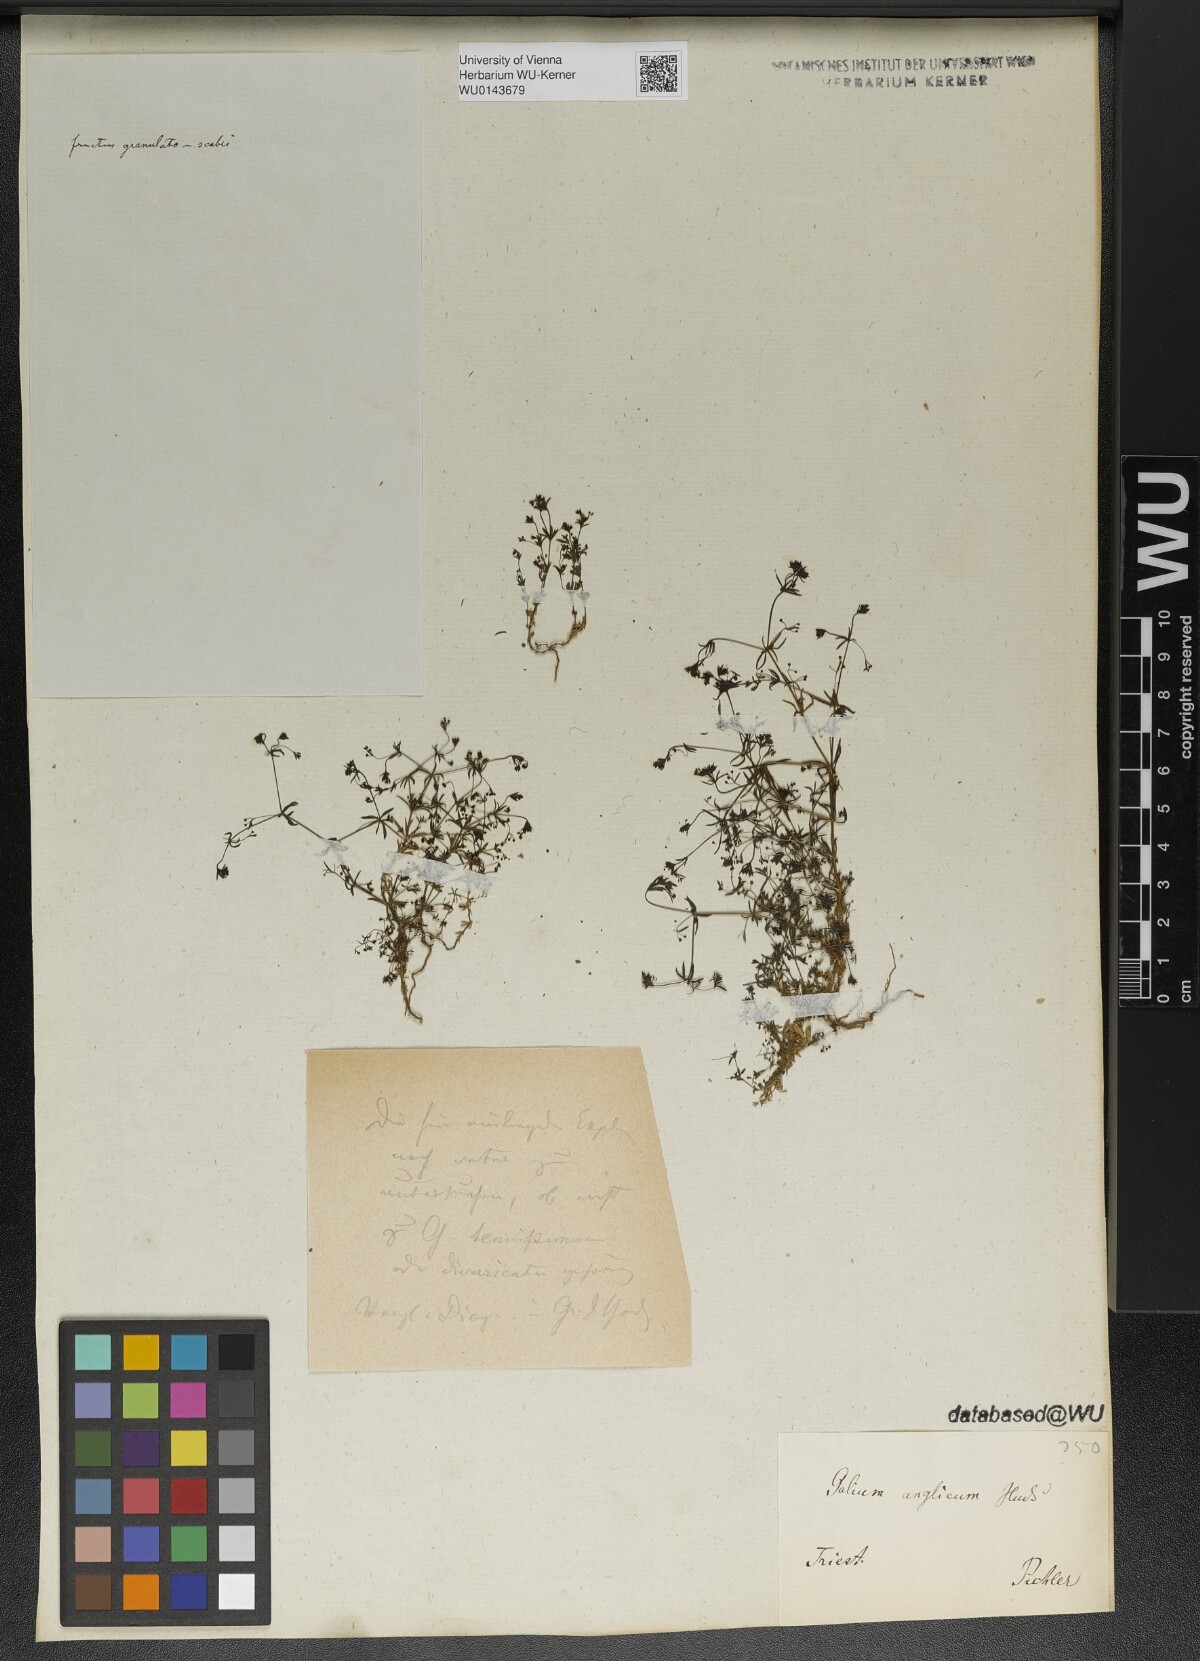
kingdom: Plantae
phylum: Tracheophyta
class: Magnoliopsida
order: Gentianales
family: Rubiaceae
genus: Galium
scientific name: Galium parisiense
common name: Wall bedstraw
